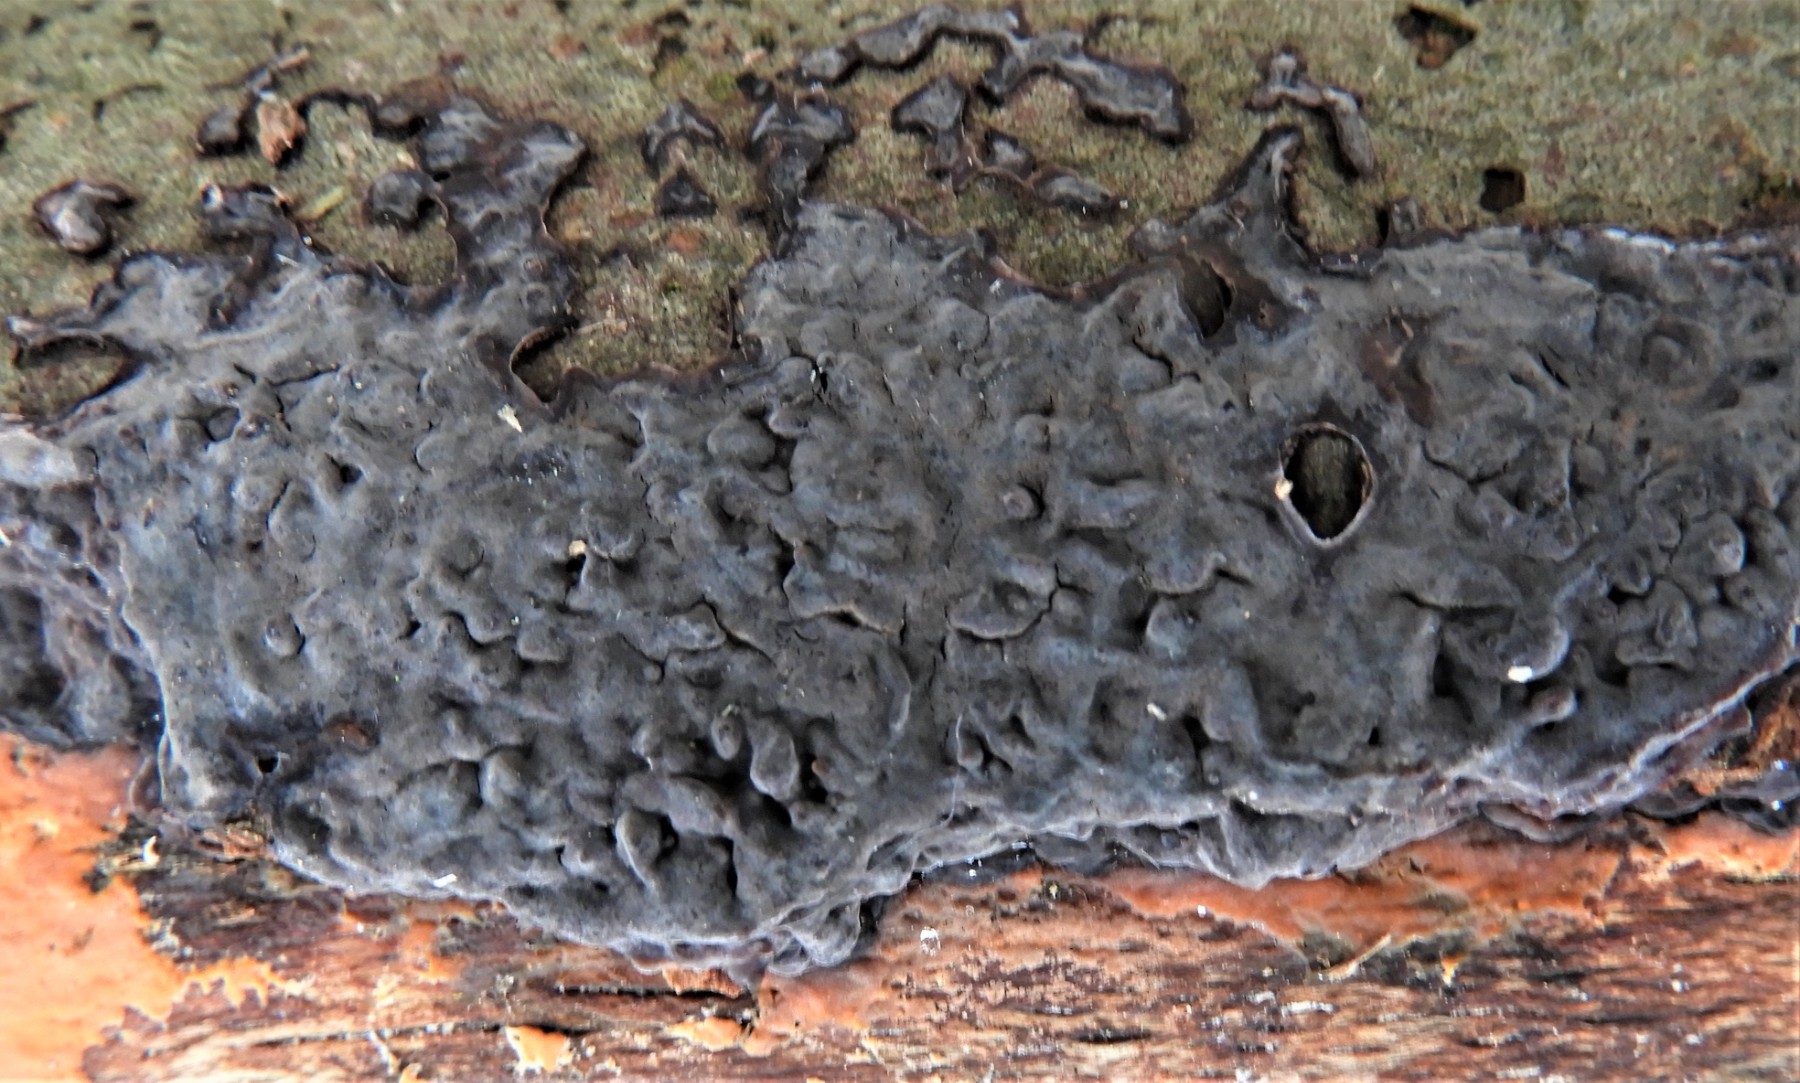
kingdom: Fungi
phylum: Basidiomycota
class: Agaricomycetes
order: Russulales
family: Peniophoraceae
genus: Peniophora
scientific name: Peniophora limitata
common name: mørkrandet voksskind
